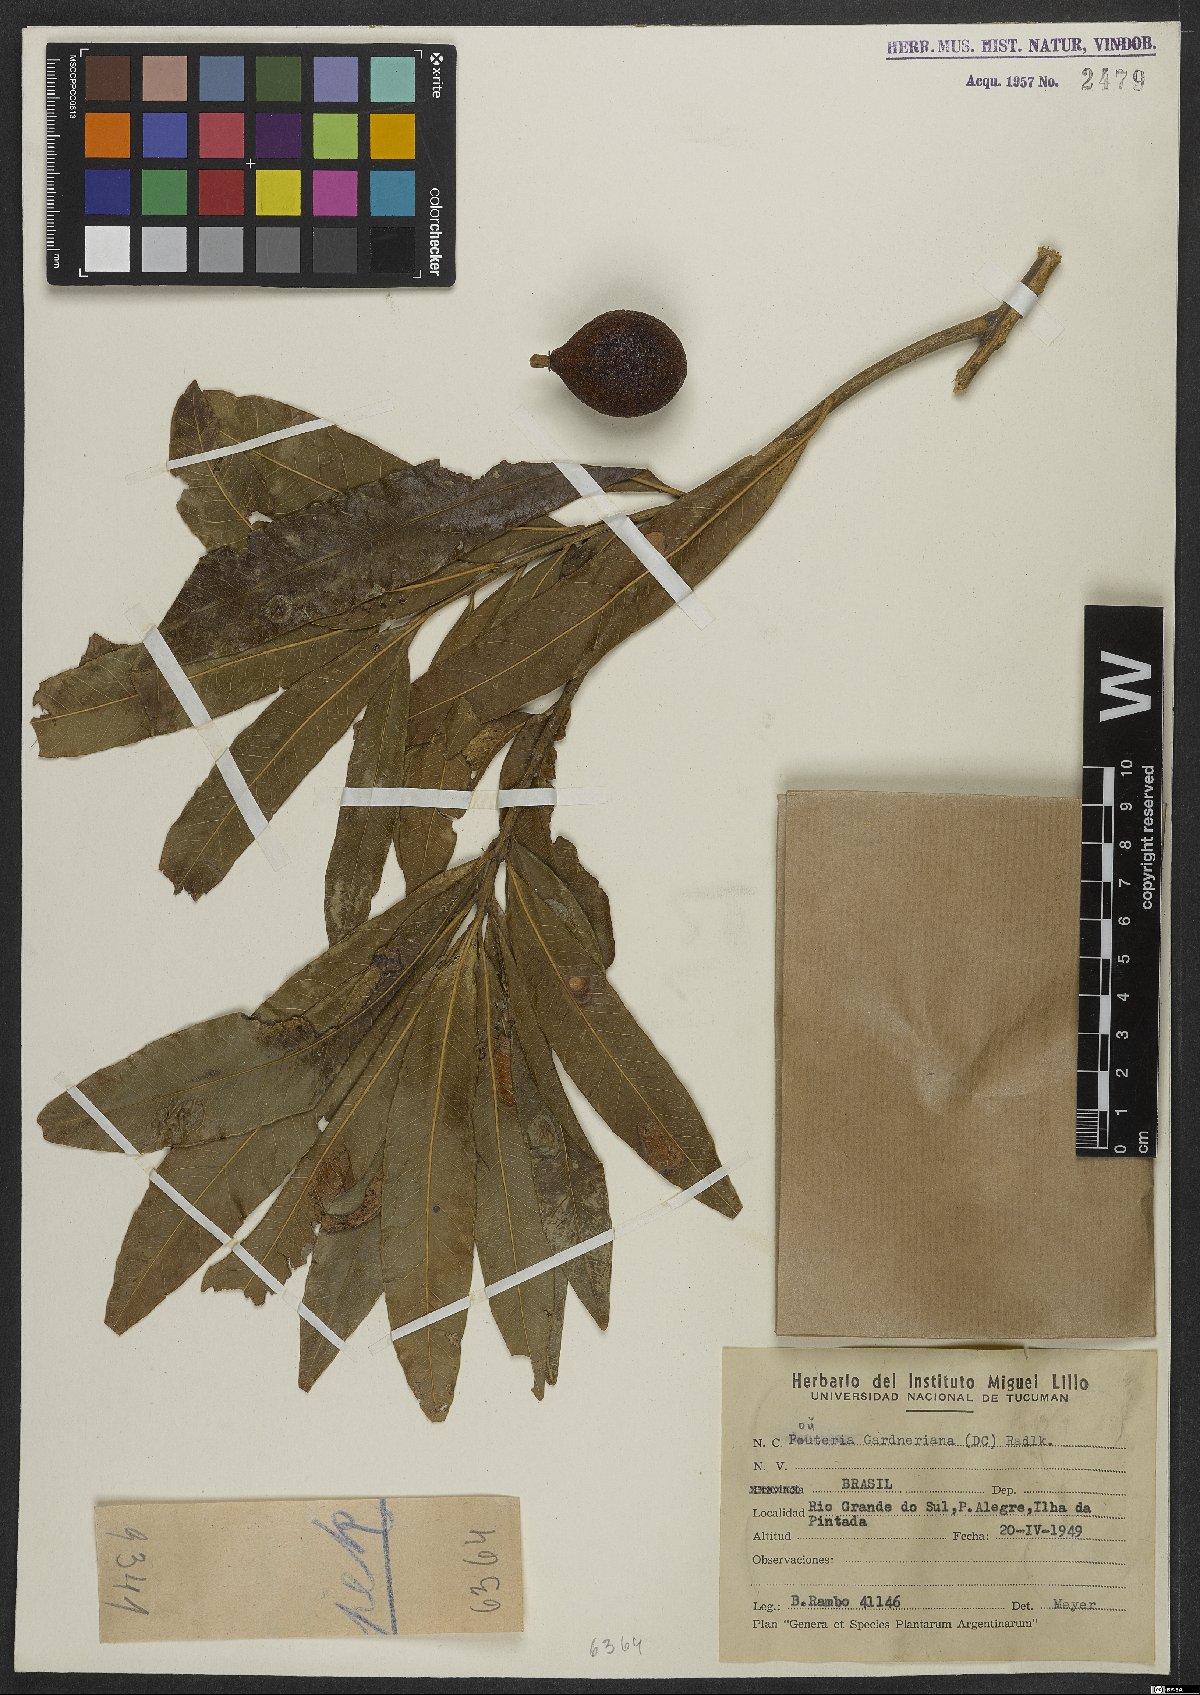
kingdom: Plantae
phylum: Tracheophyta
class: Magnoliopsida
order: Ericales
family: Sapotaceae
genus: Pouteria
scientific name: Pouteria gardneriana
